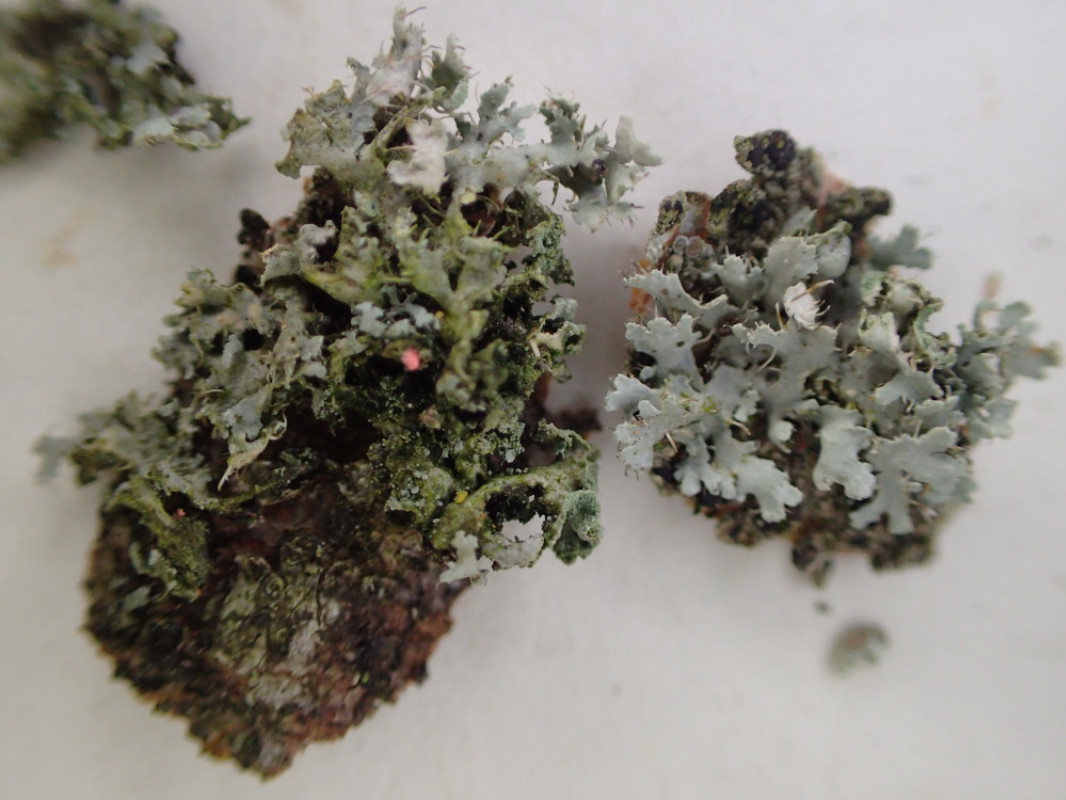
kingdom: Fungi
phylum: Ascomycota
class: Lecanoromycetes
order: Caliciales
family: Physciaceae
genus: Physcia
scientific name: Physcia tenella
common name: spæd rosetlav
